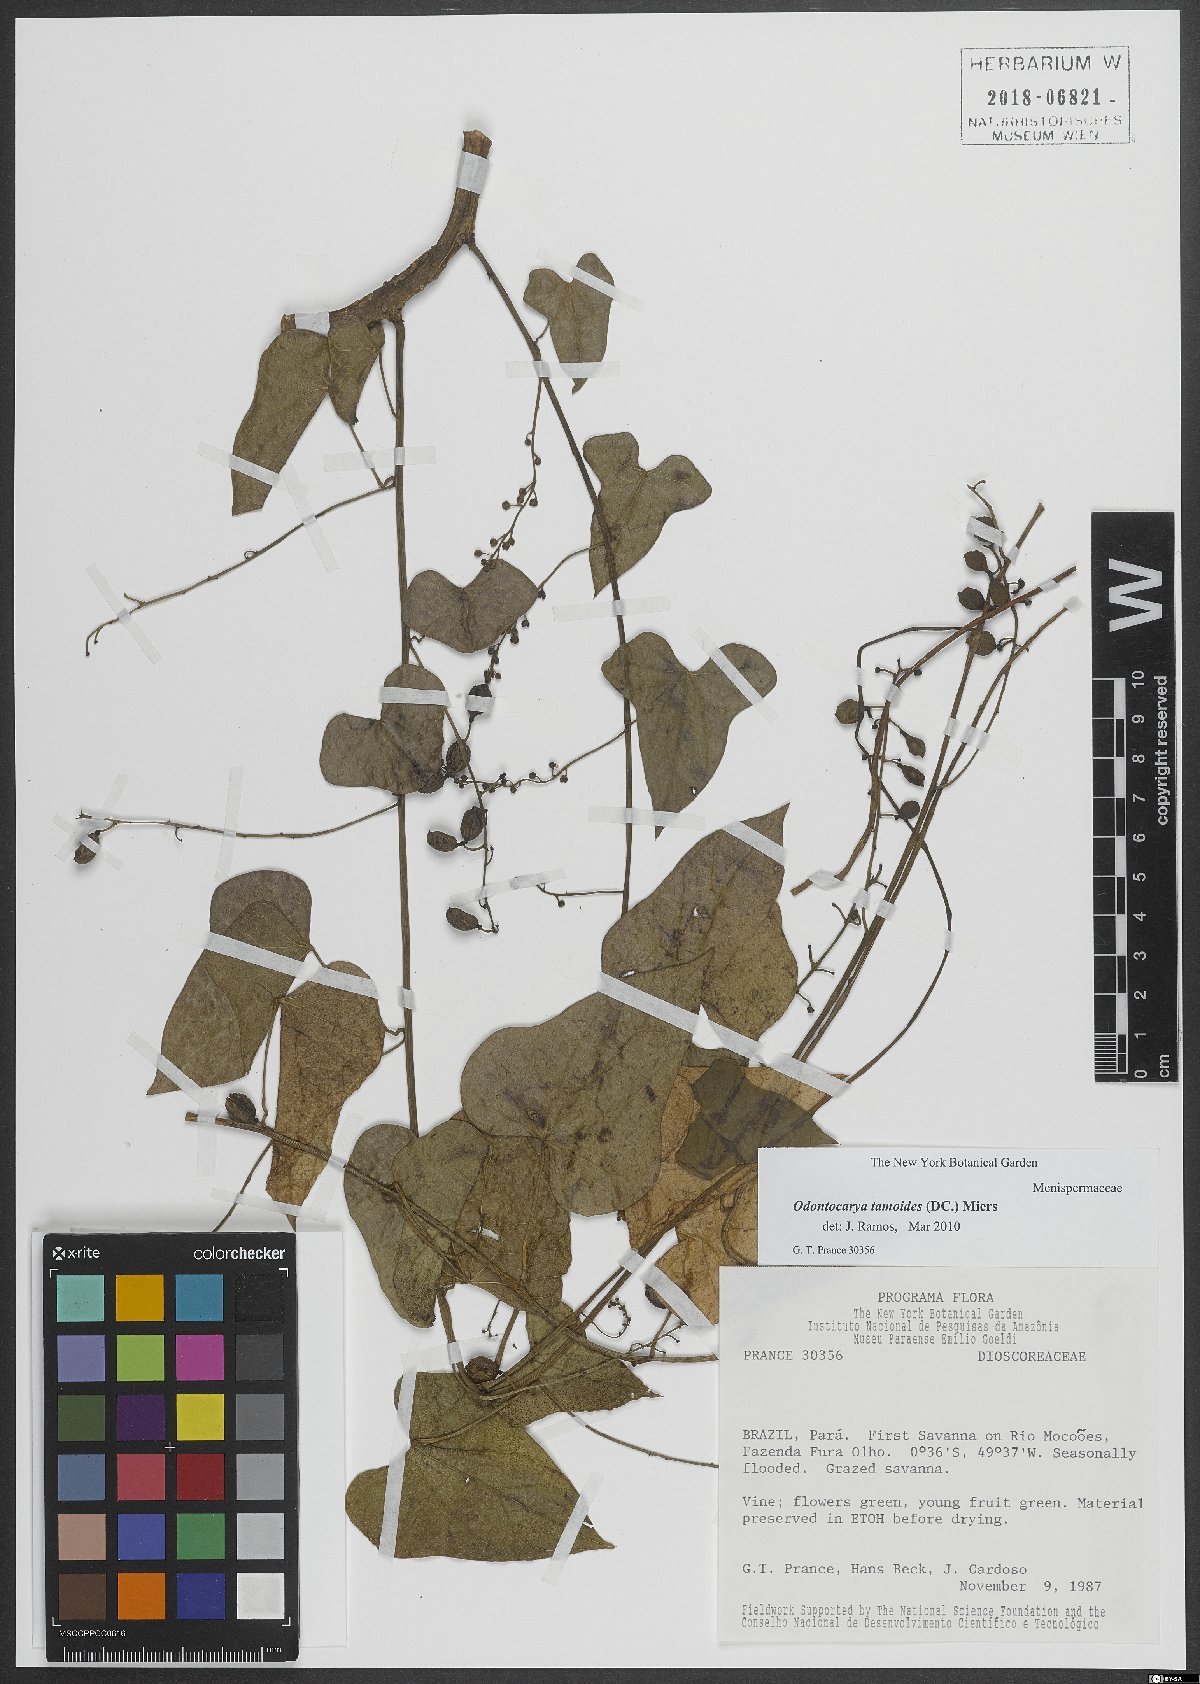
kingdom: Plantae
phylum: Tracheophyta
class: Magnoliopsida
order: Ranunculales
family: Menispermaceae
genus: Odontocarya
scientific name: Odontocarya tamoides
